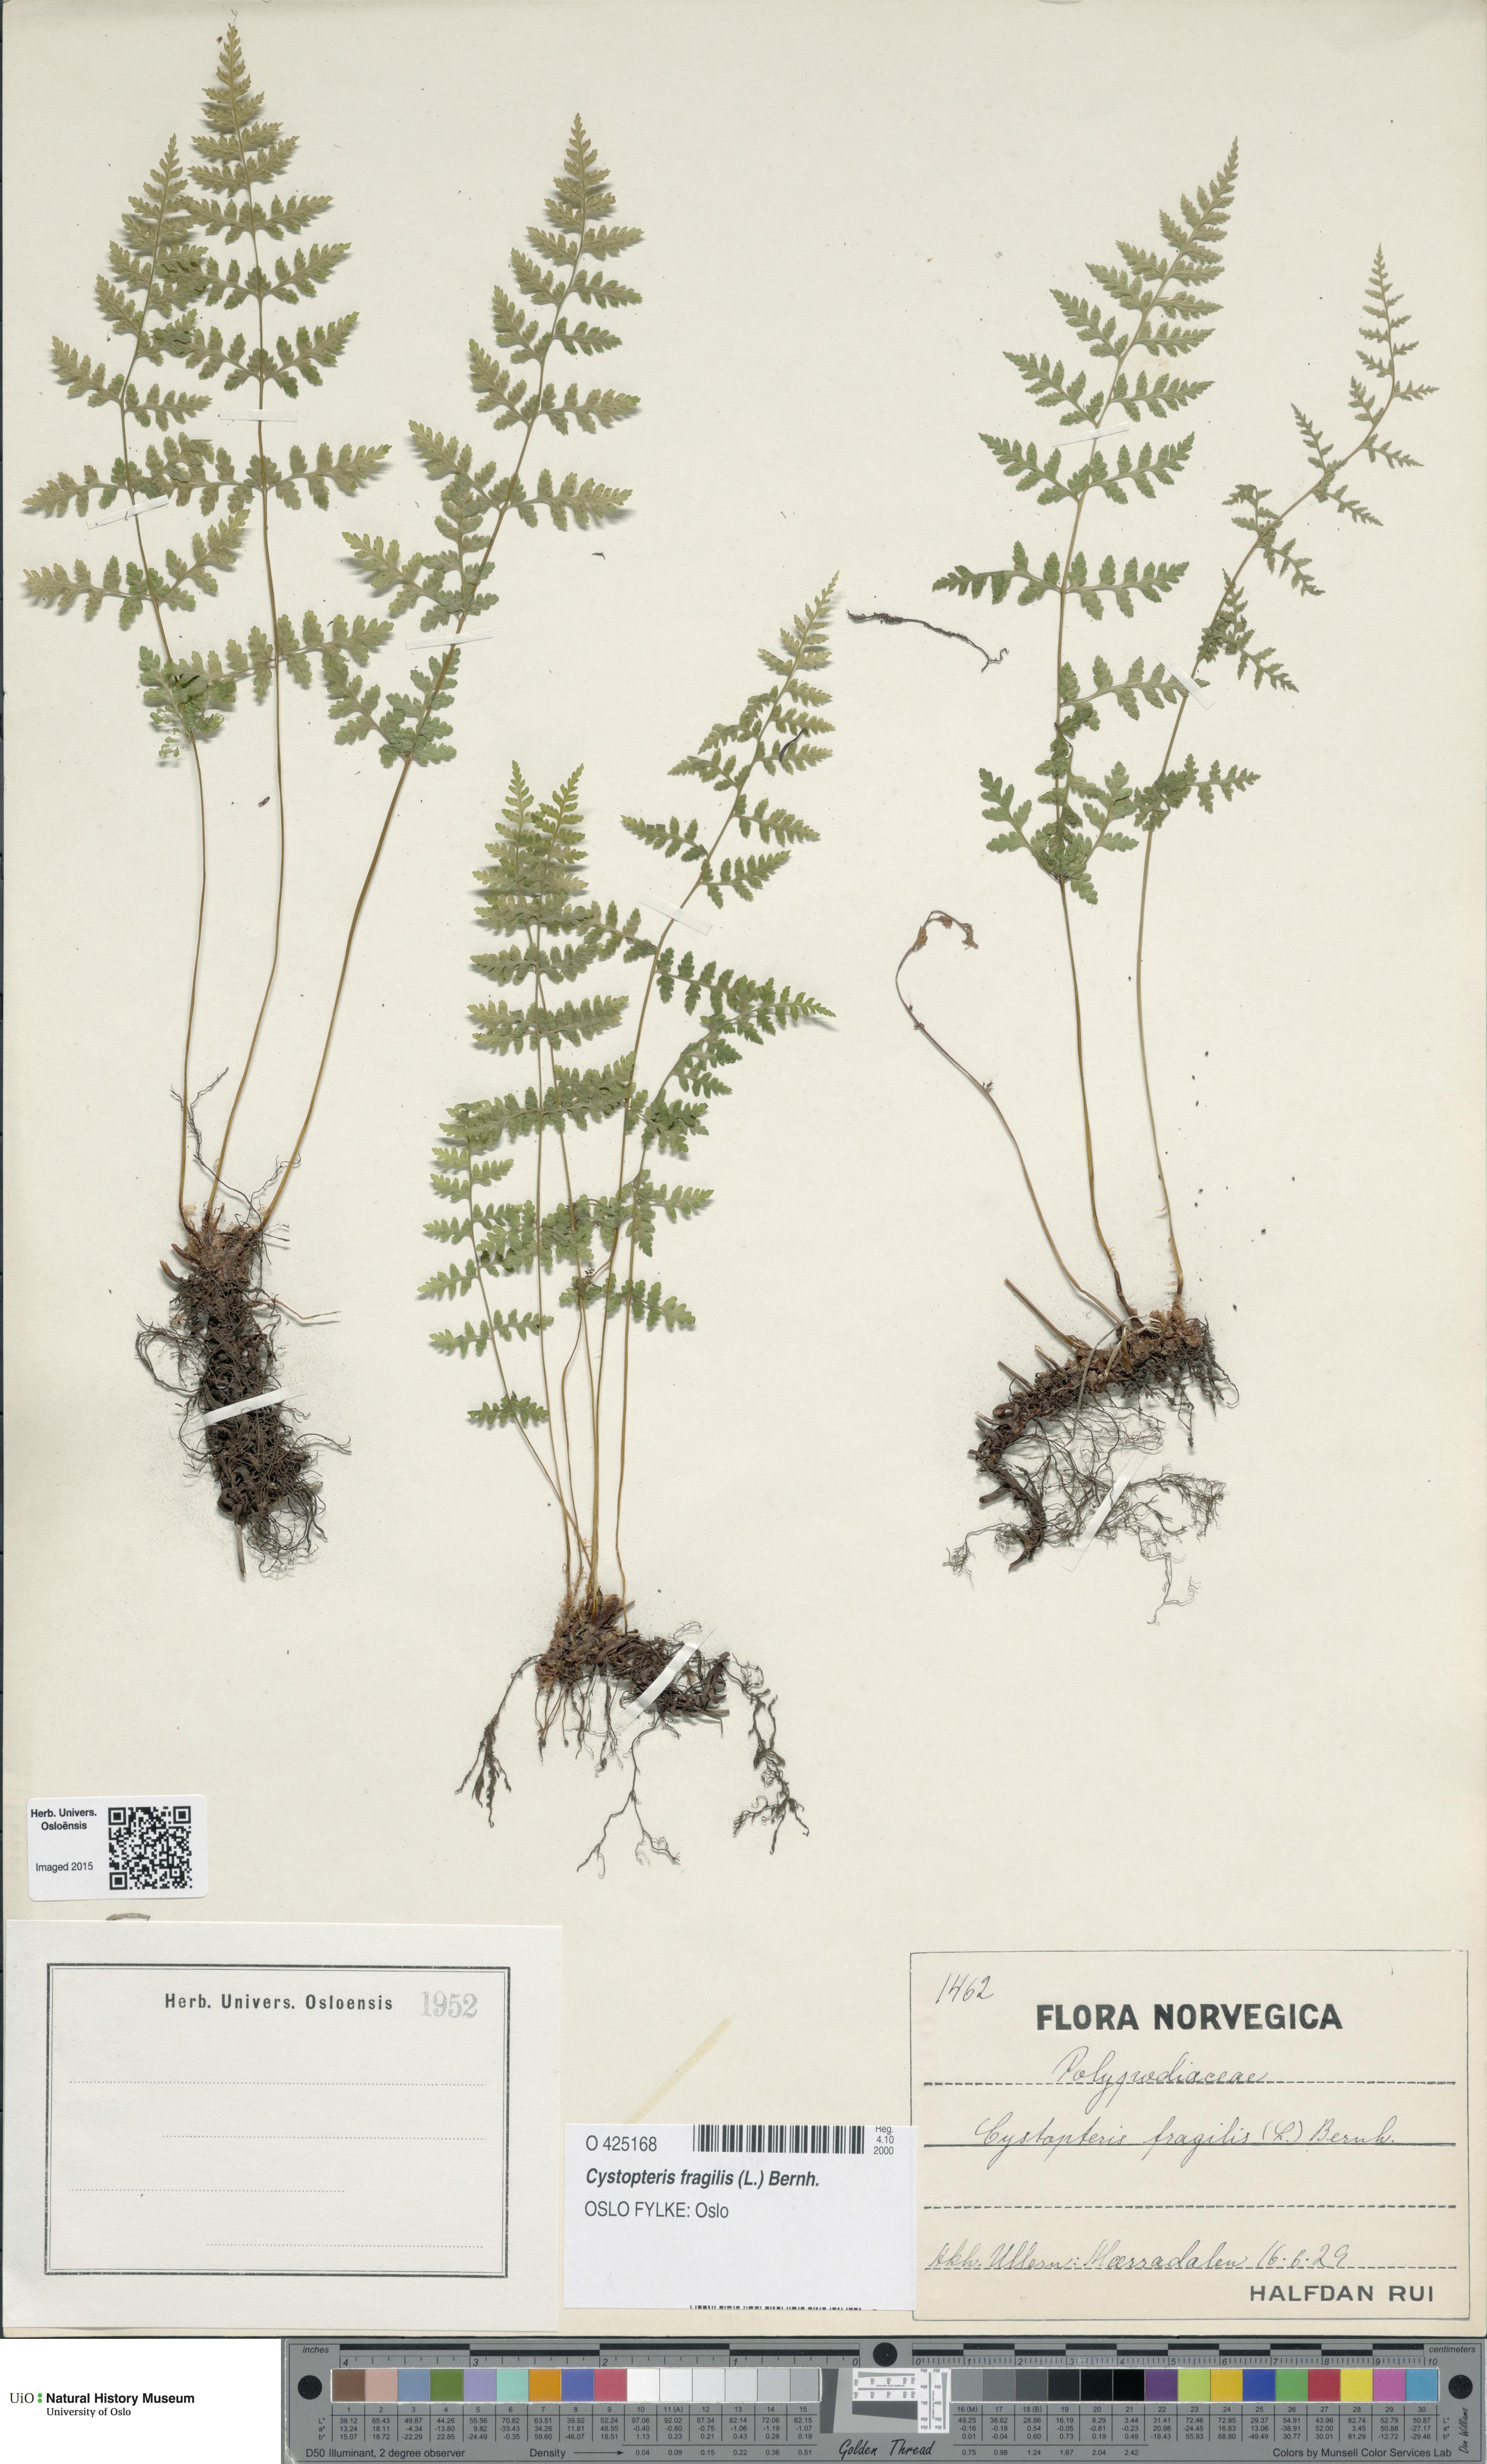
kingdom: Plantae
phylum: Tracheophyta
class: Polypodiopsida
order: Polypodiales
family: Cystopteridaceae
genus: Cystopteris
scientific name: Cystopteris fragilis
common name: Brittle bladder fern
